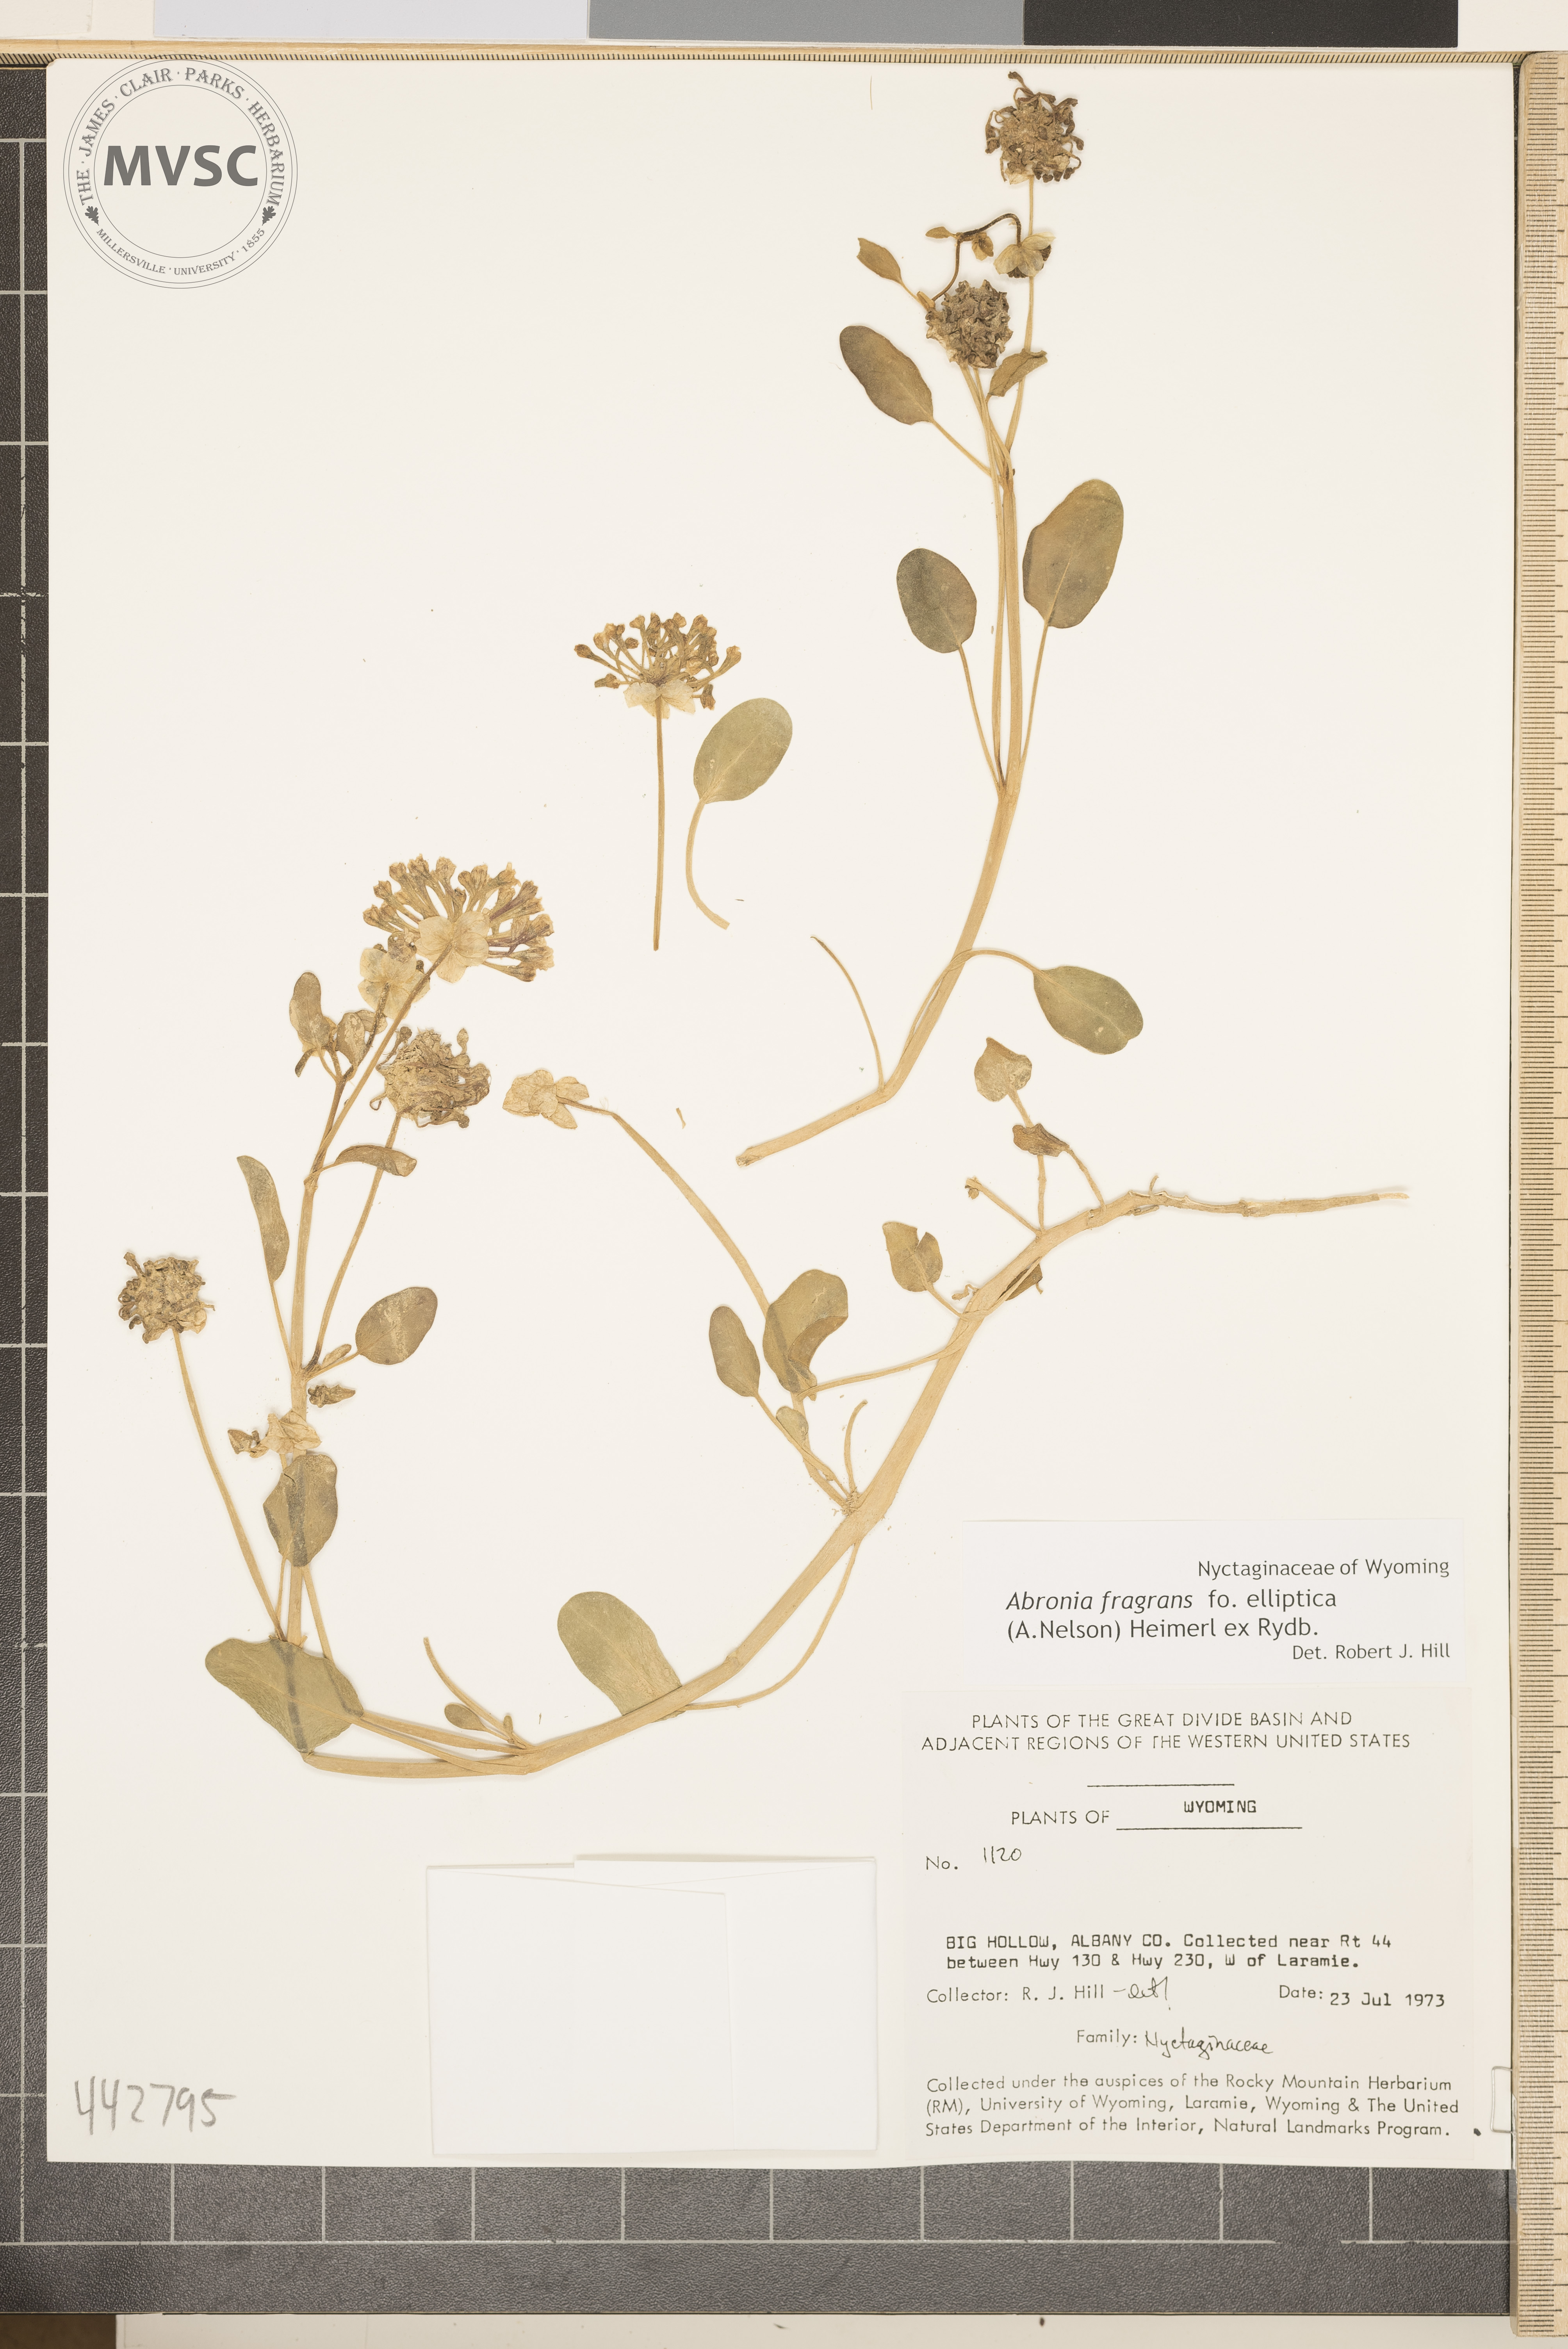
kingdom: Plantae
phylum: Tracheophyta
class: Magnoliopsida
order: Caryophyllales
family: Nyctaginaceae
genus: Abronia
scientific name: Abronia fragrans
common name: Fragrant sand-verbena
